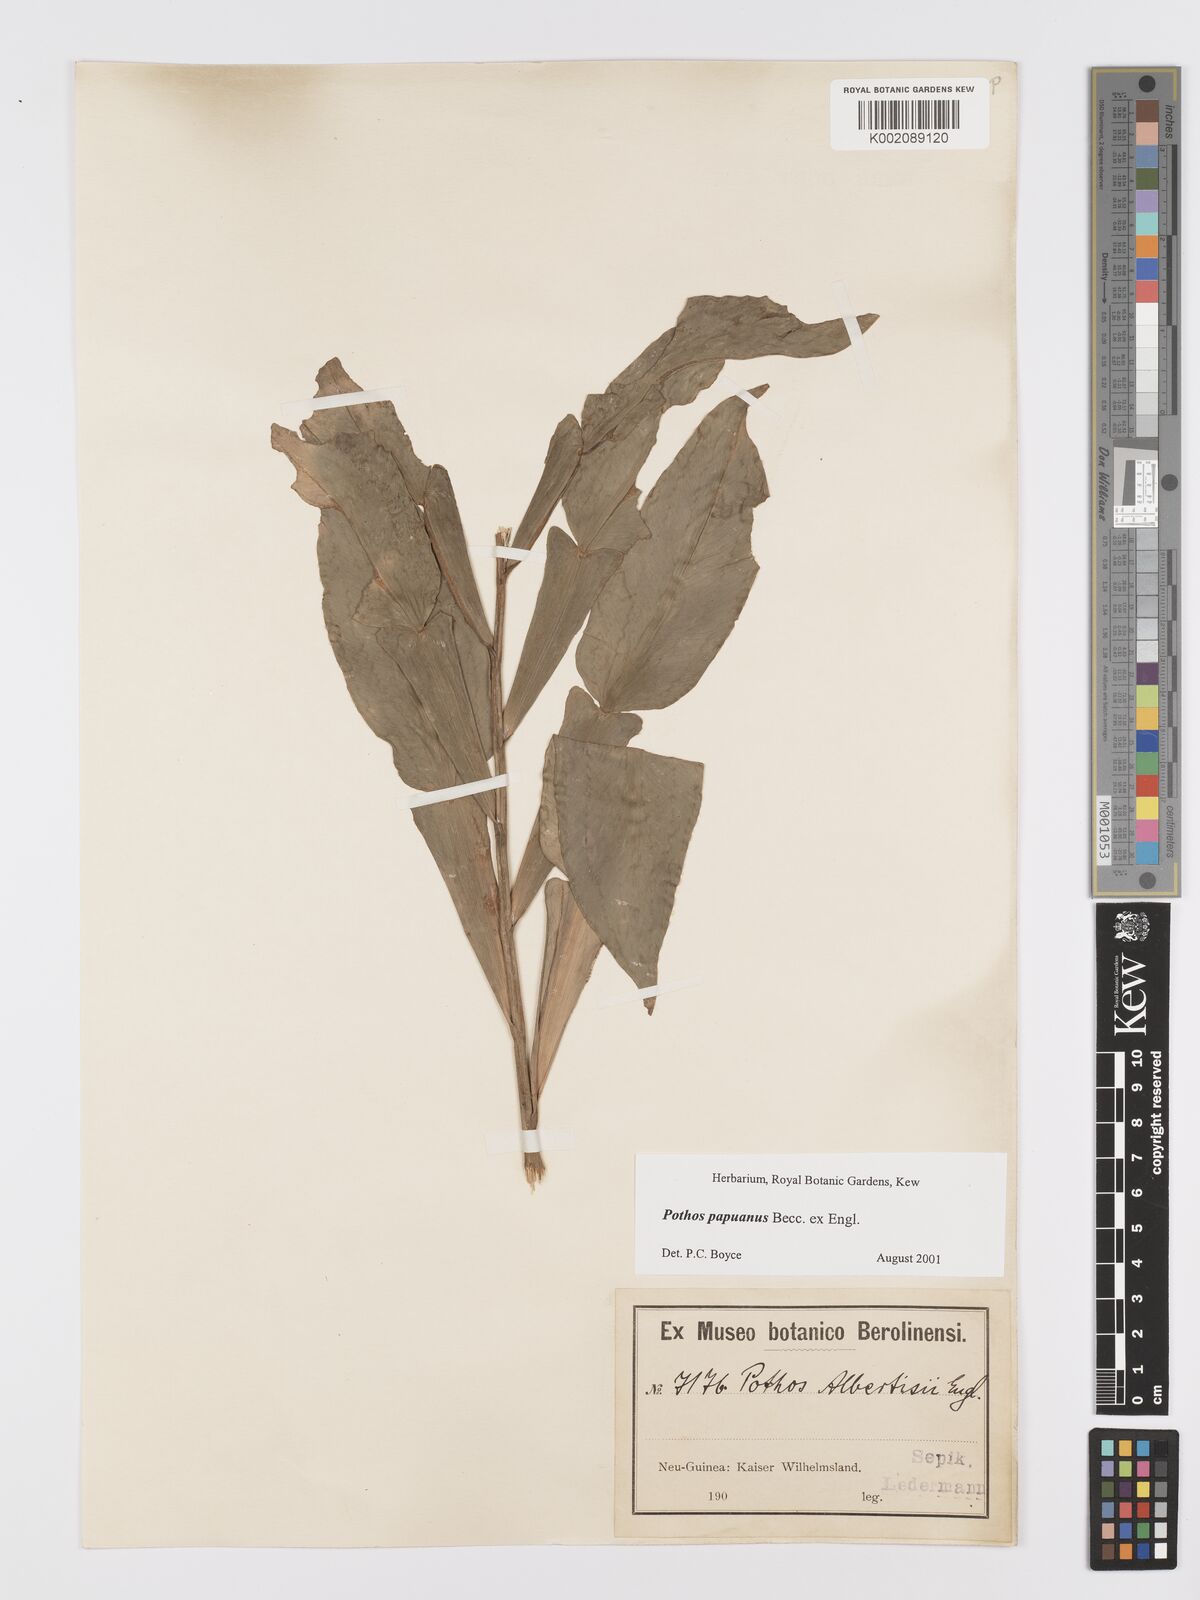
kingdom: Plantae
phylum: Tracheophyta
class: Liliopsida
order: Alismatales
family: Araceae
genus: Pothos
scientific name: Pothos papuanus
